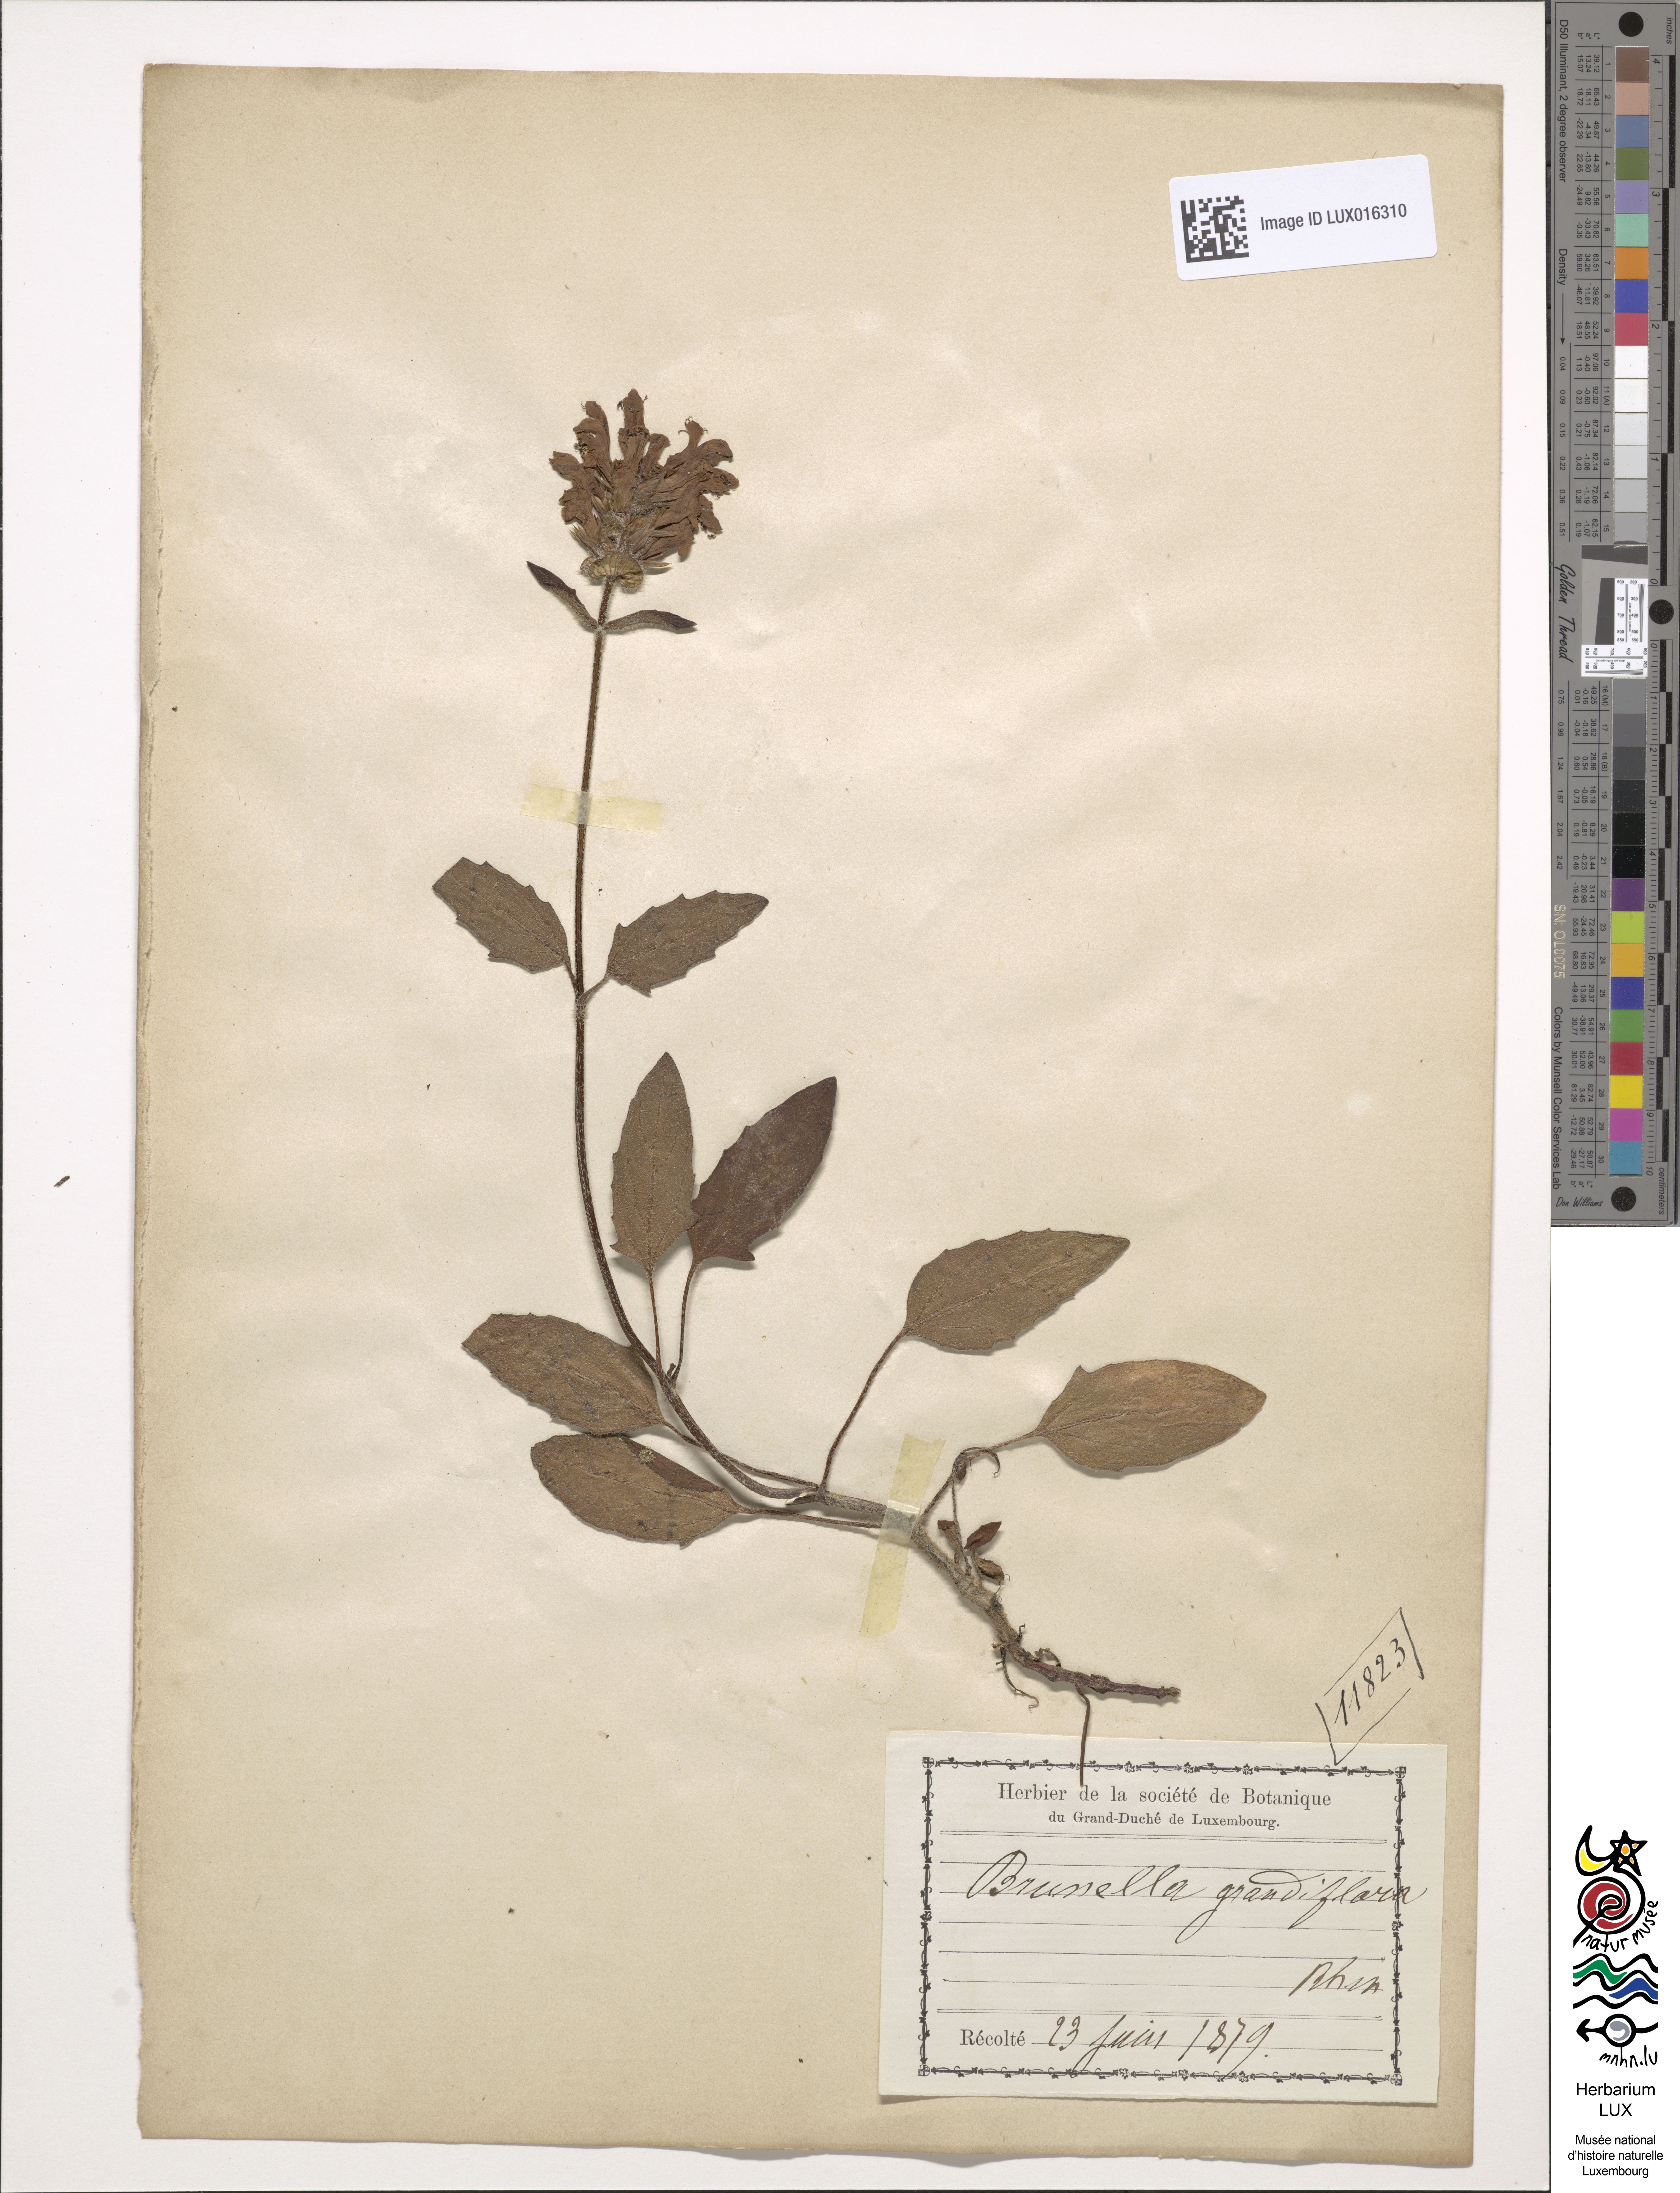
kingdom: Plantae
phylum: Tracheophyta
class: Magnoliopsida
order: Lamiales
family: Lamiaceae
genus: Prunella
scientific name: Prunella grandiflora
